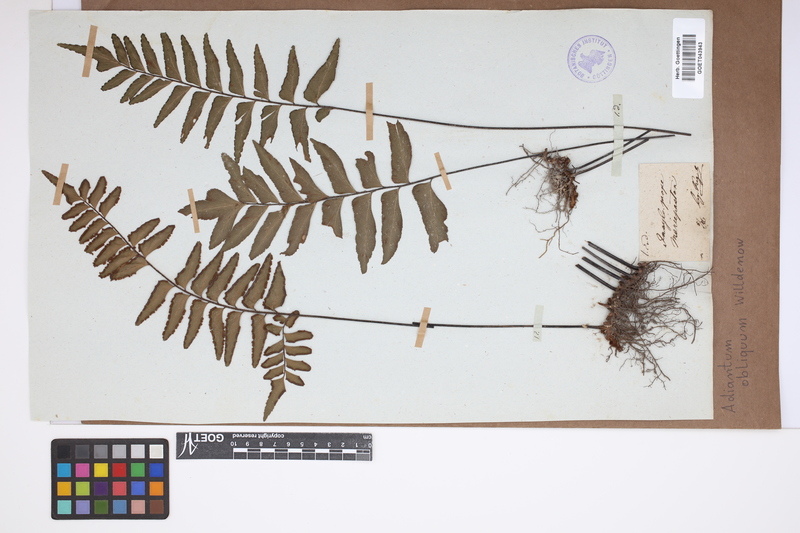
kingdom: Plantae
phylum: Tracheophyta
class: Polypodiopsida
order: Polypodiales
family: Pteridaceae
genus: Adiantum
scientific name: Adiantum obliquum
